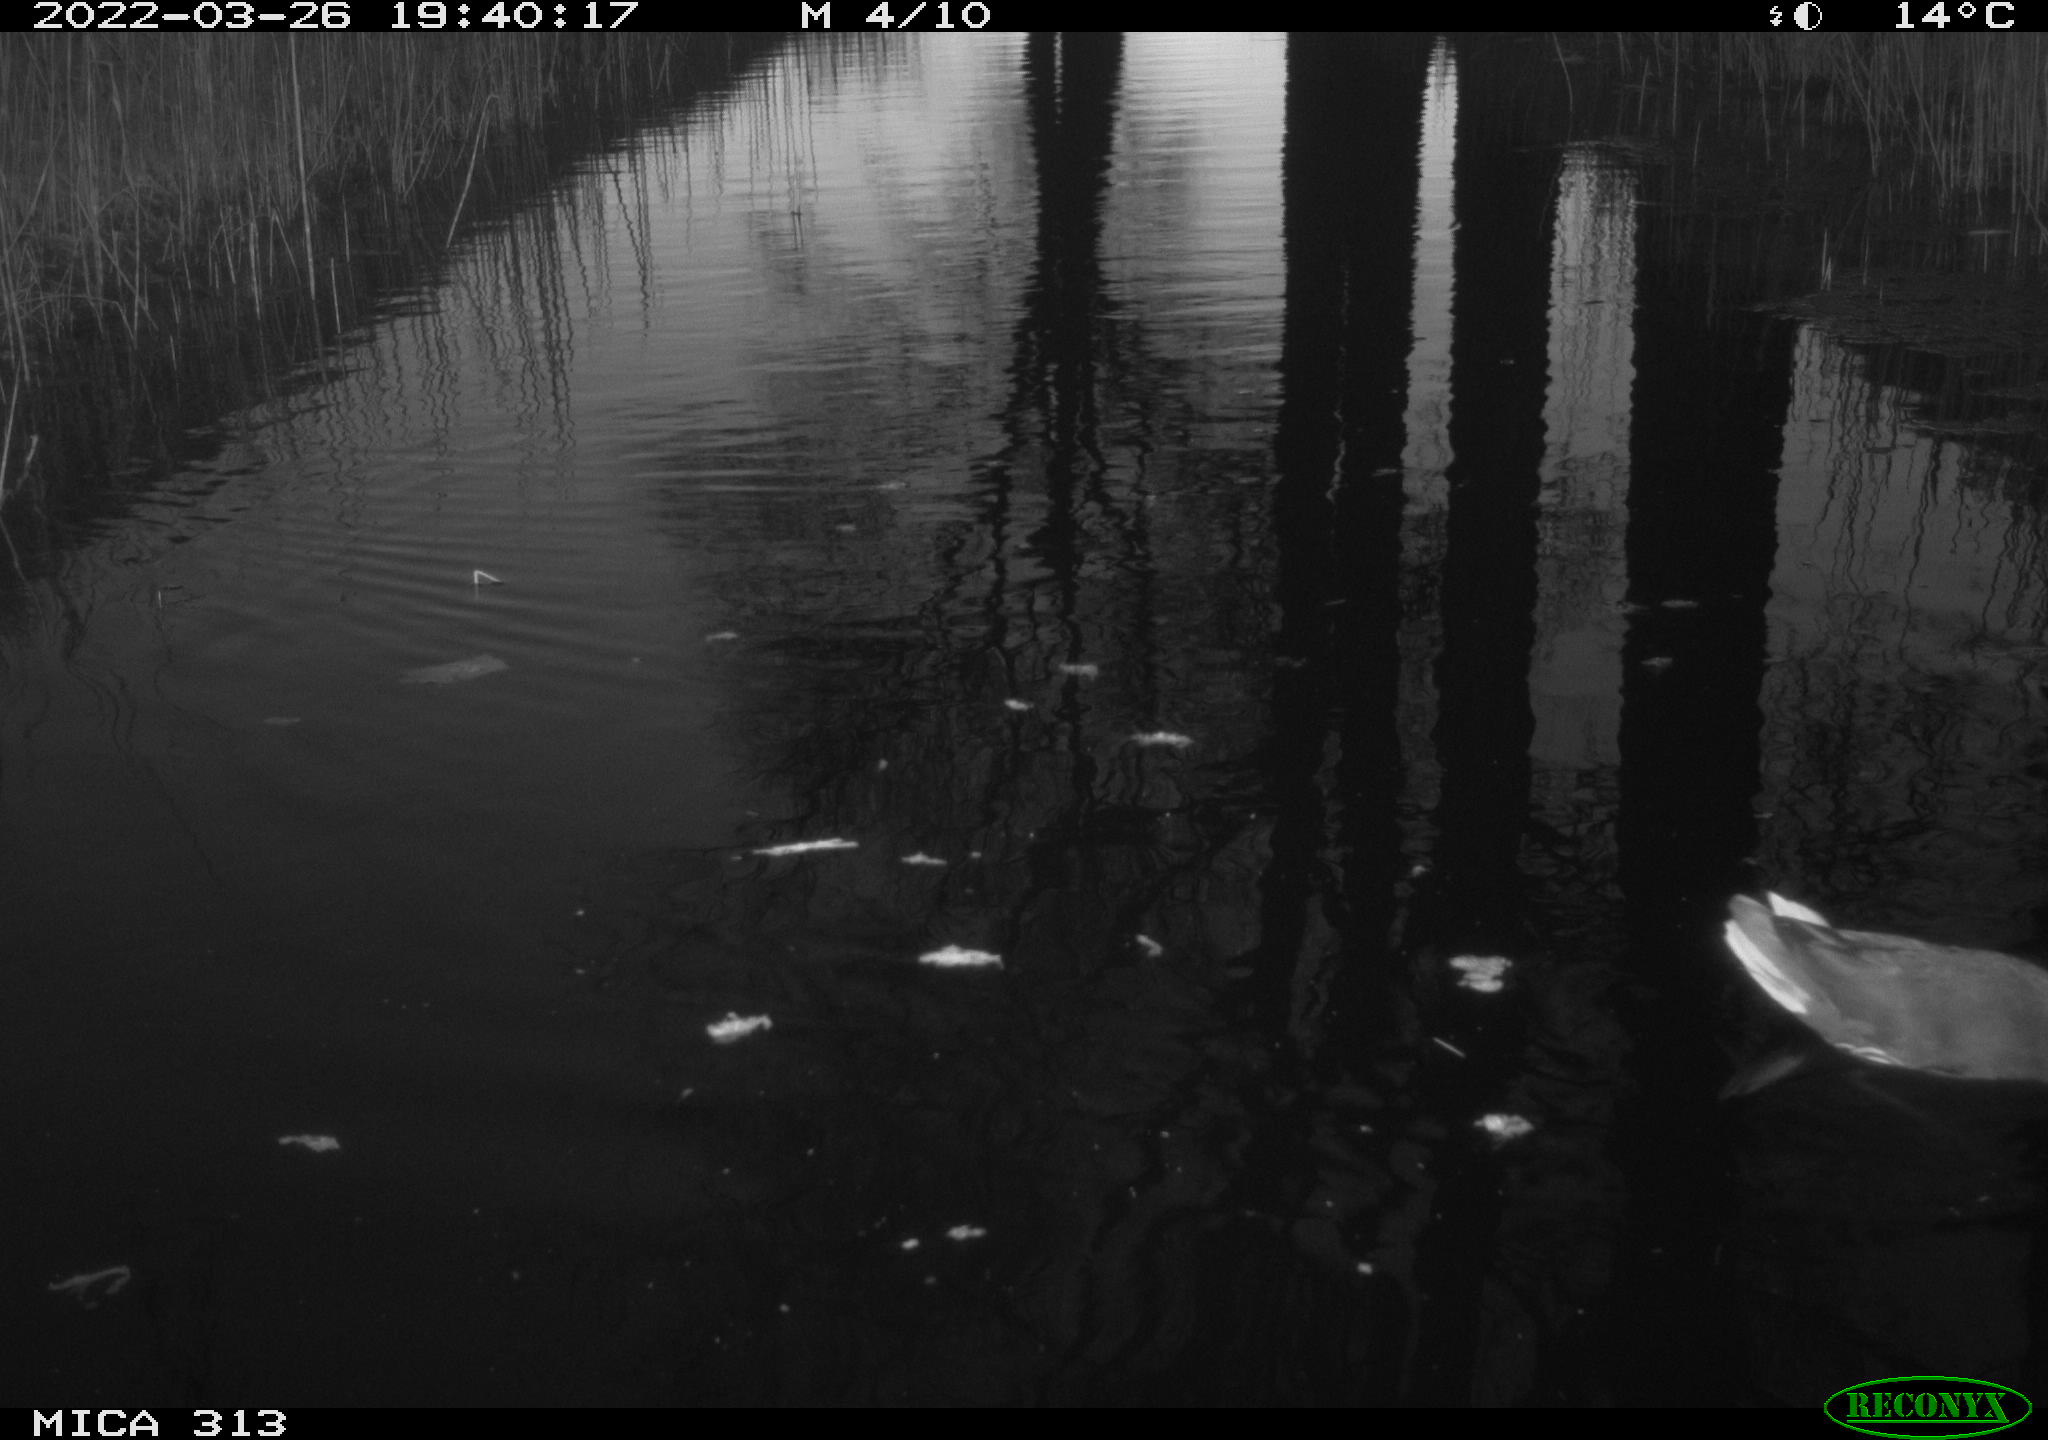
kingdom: Animalia
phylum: Chordata
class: Aves
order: Gruiformes
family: Rallidae
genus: Gallinula
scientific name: Gallinula chloropus
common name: Common moorhen
